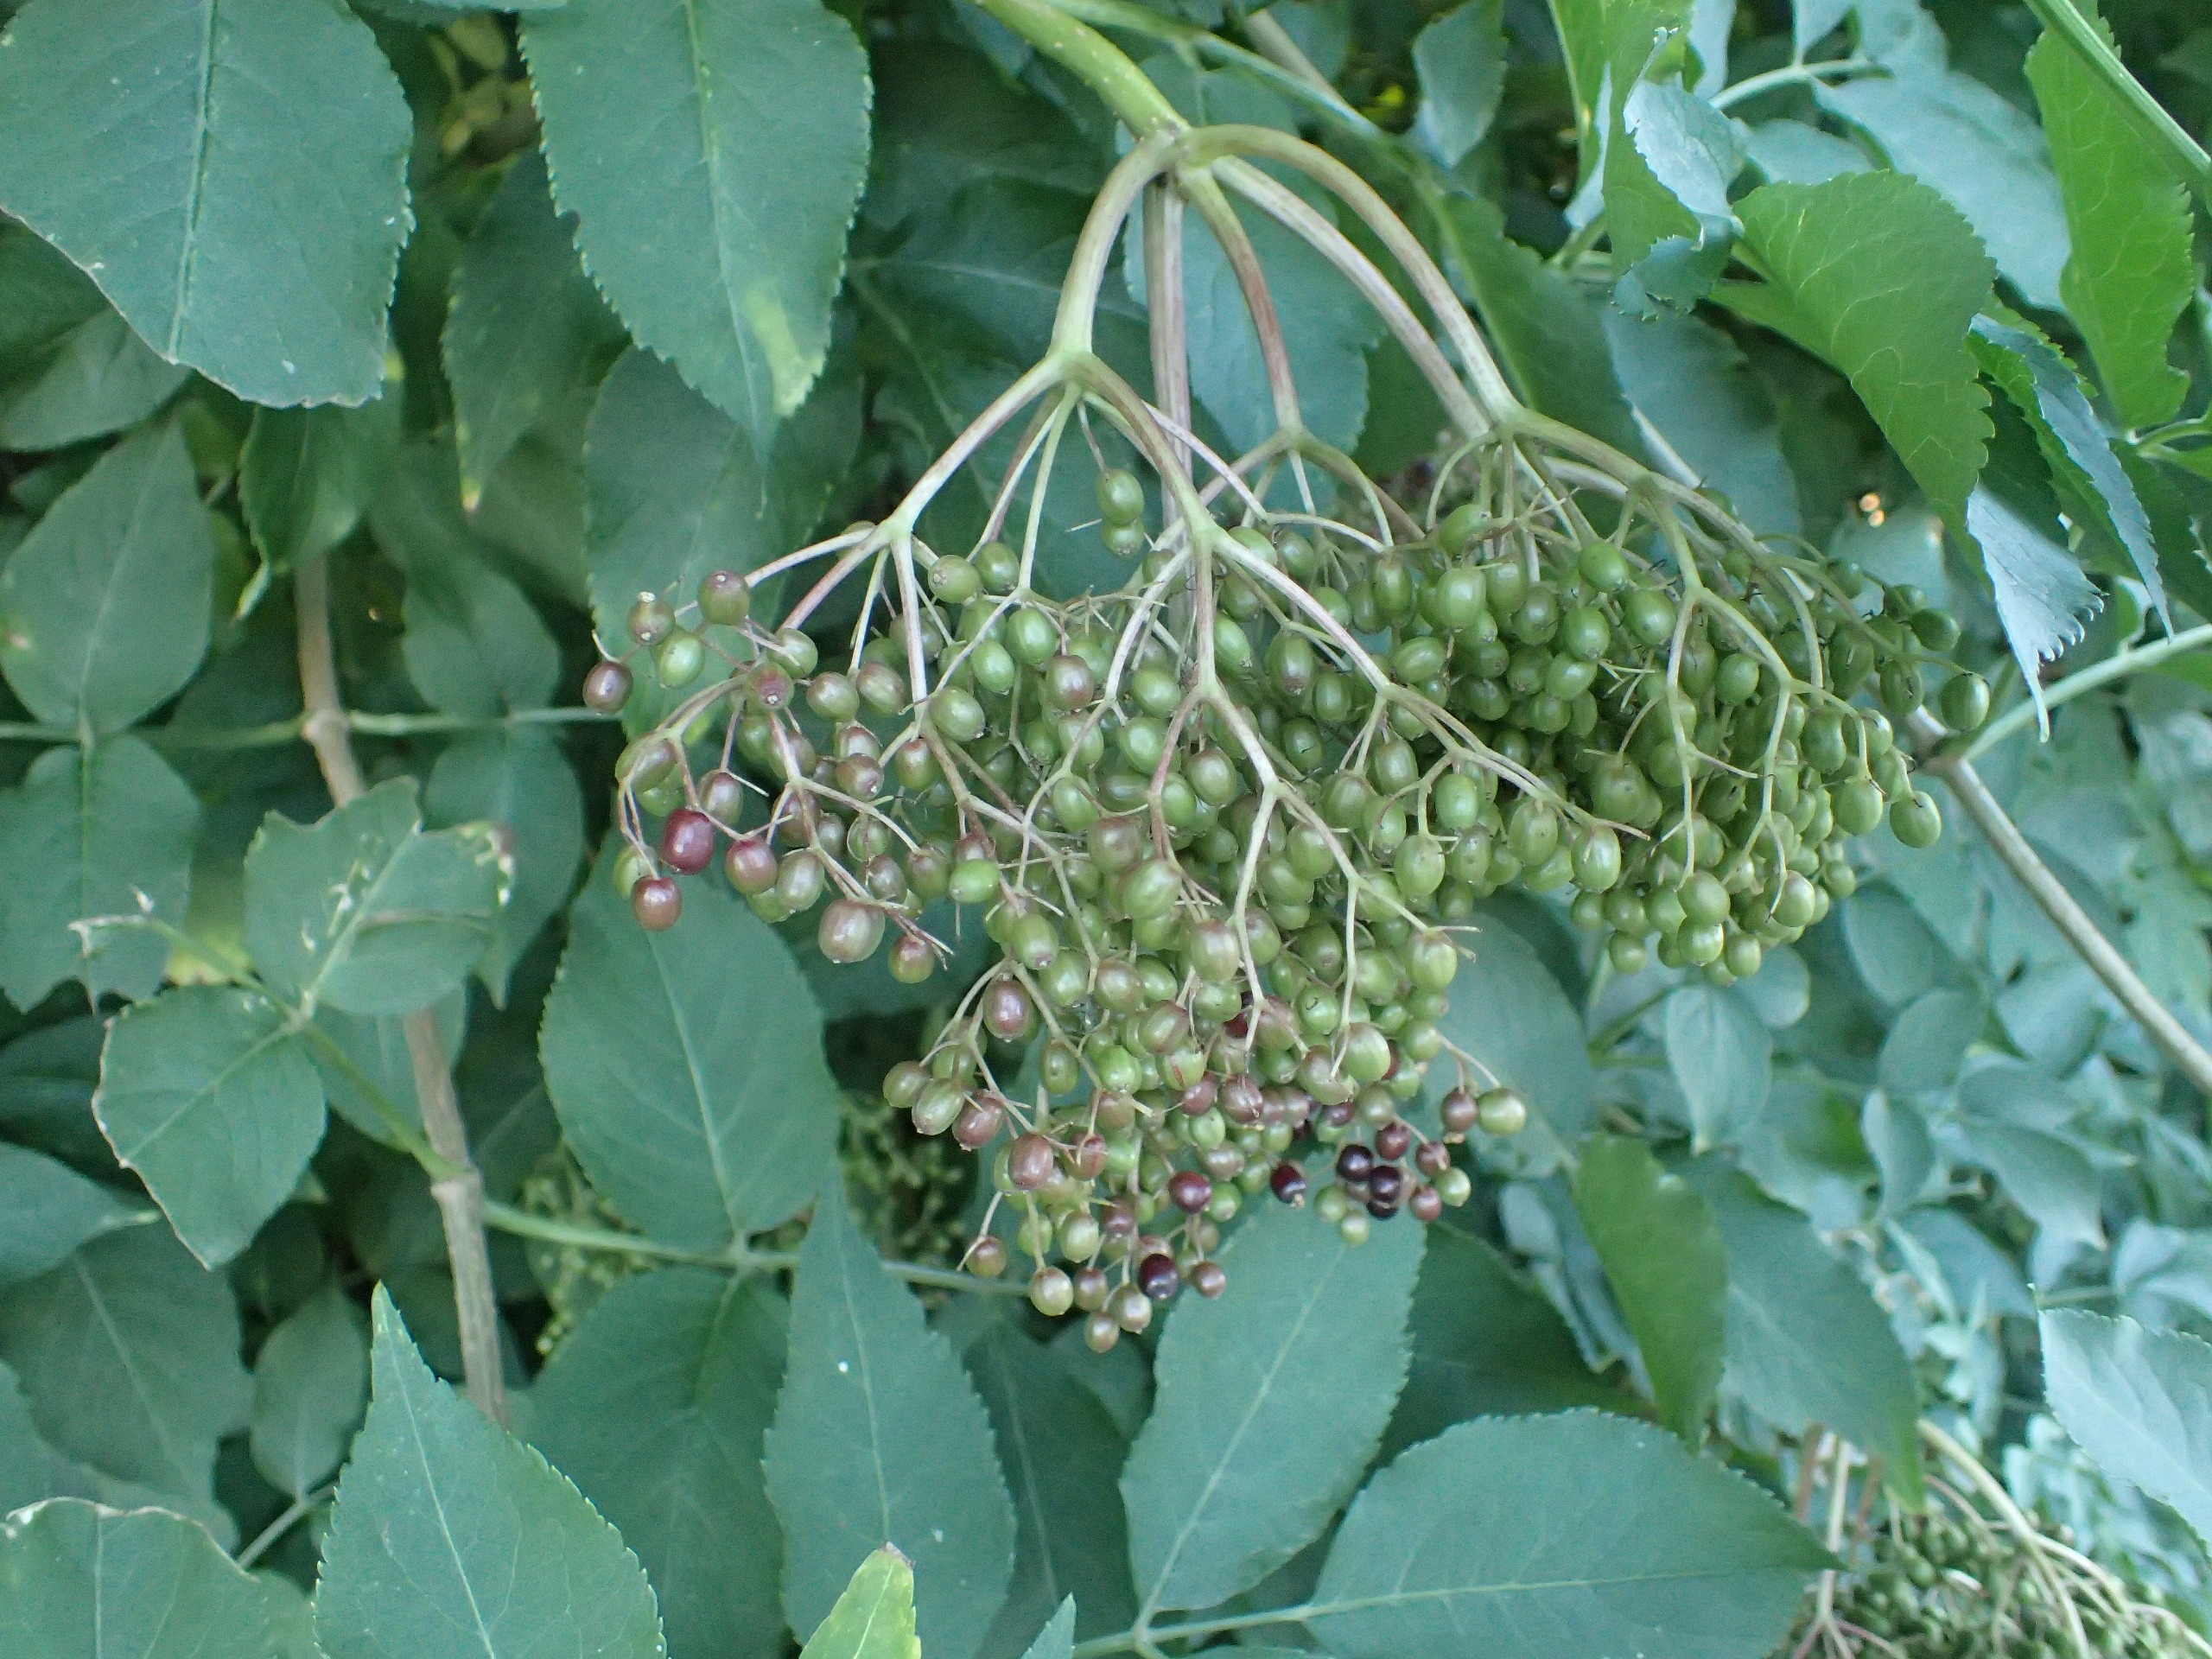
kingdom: Plantae
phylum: Tracheophyta
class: Magnoliopsida
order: Dipsacales
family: Viburnaceae
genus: Sambucus
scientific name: Sambucus nigra
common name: Almindelig hyld
